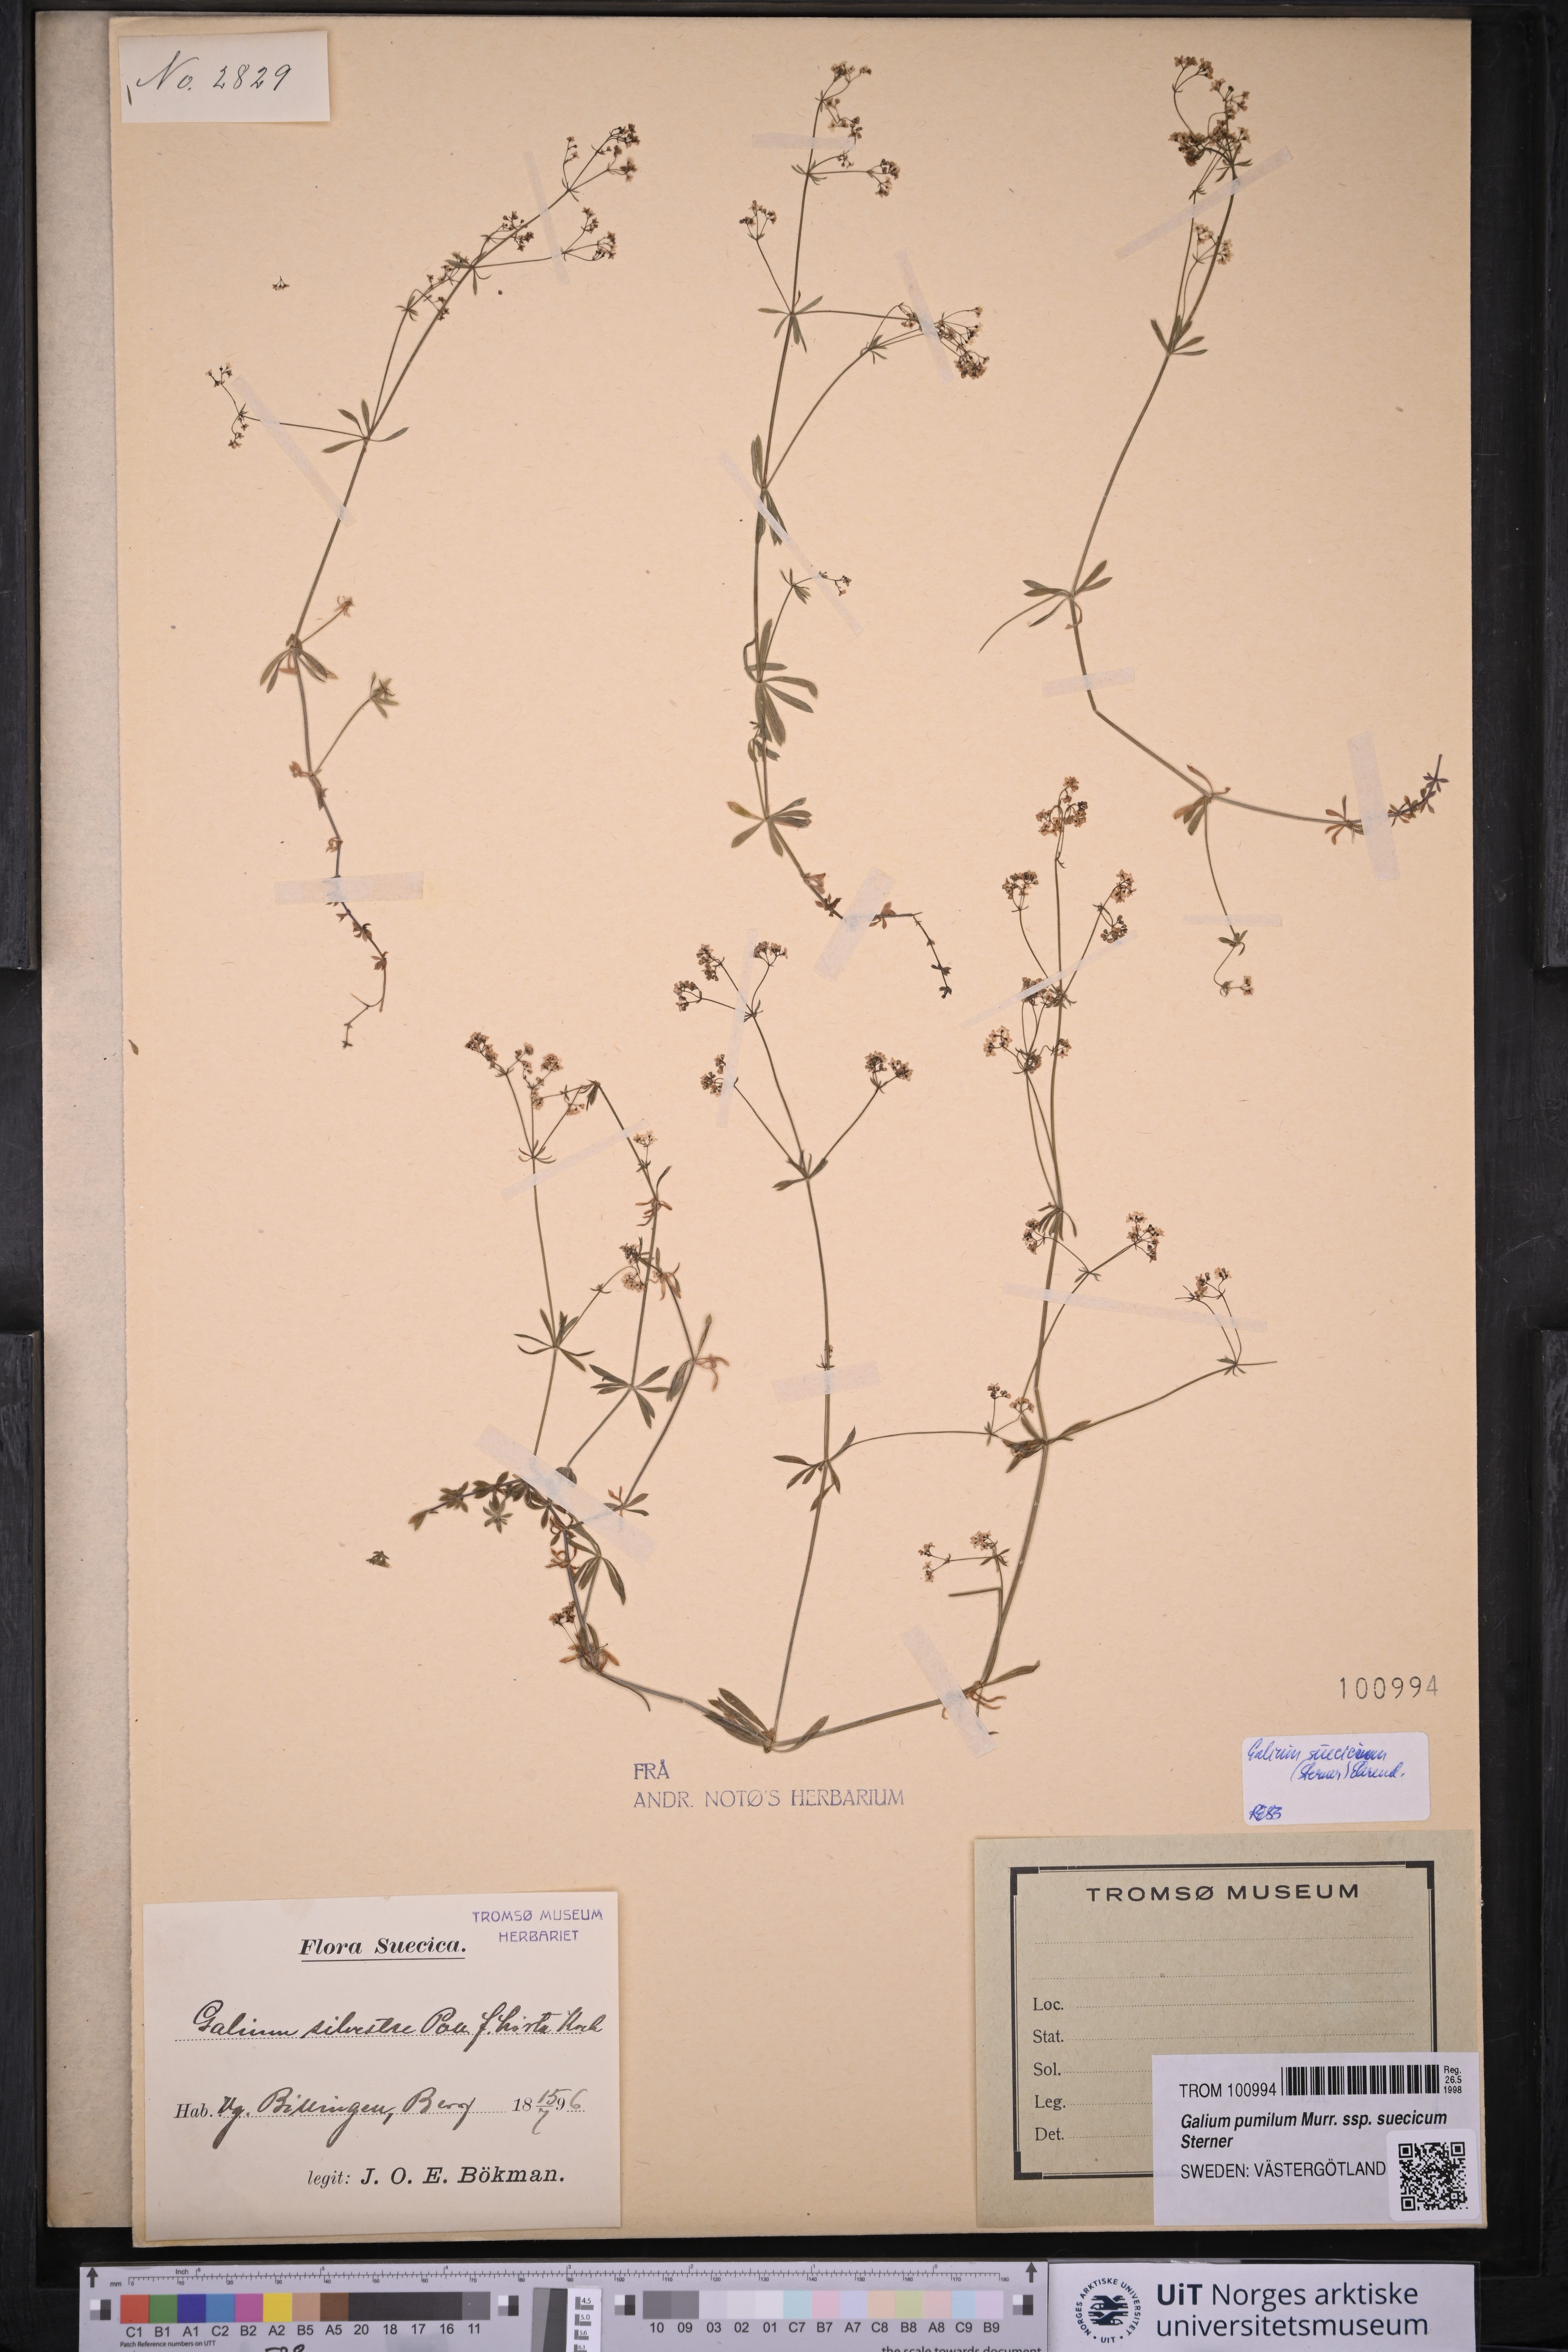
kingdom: Plantae
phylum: Tracheophyta
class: Magnoliopsida
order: Gentianales
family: Rubiaceae
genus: Galium
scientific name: Galium suecicum
